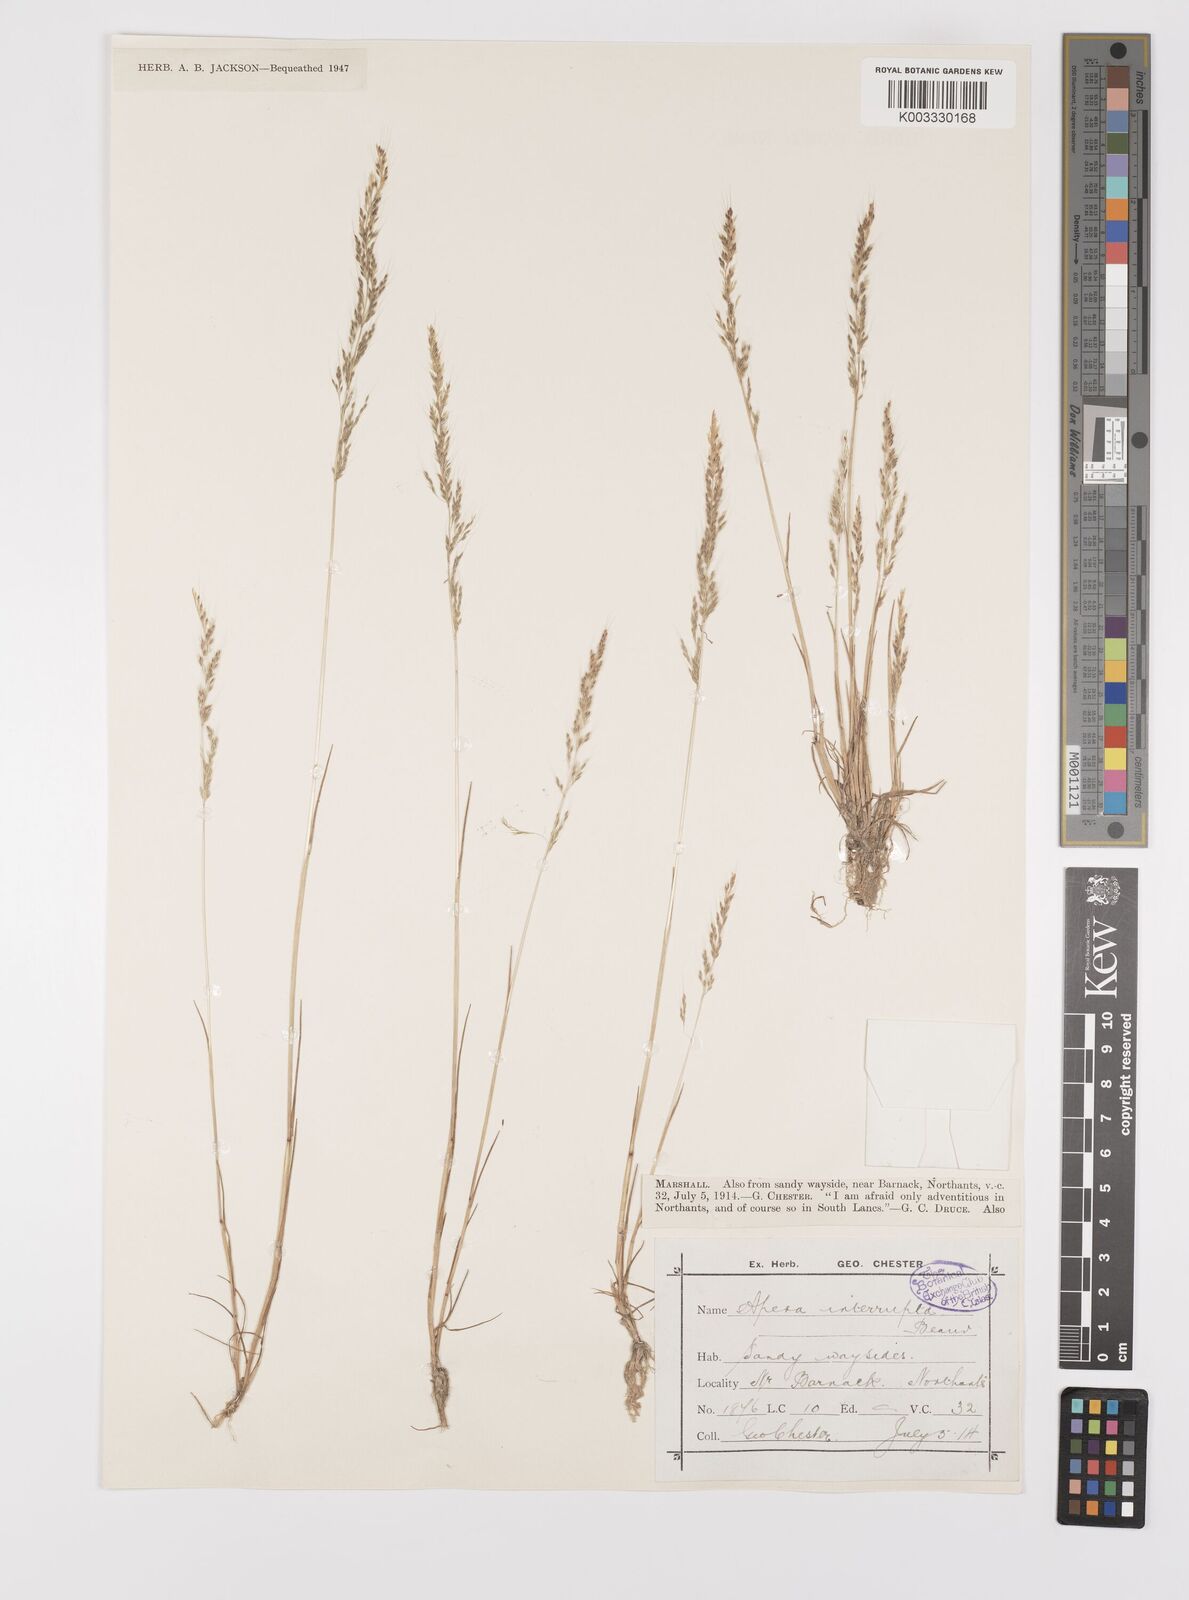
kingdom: Plantae
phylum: Tracheophyta
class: Liliopsida
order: Poales
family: Poaceae
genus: Apera
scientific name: Apera interrupta
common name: Dense silky-bent
